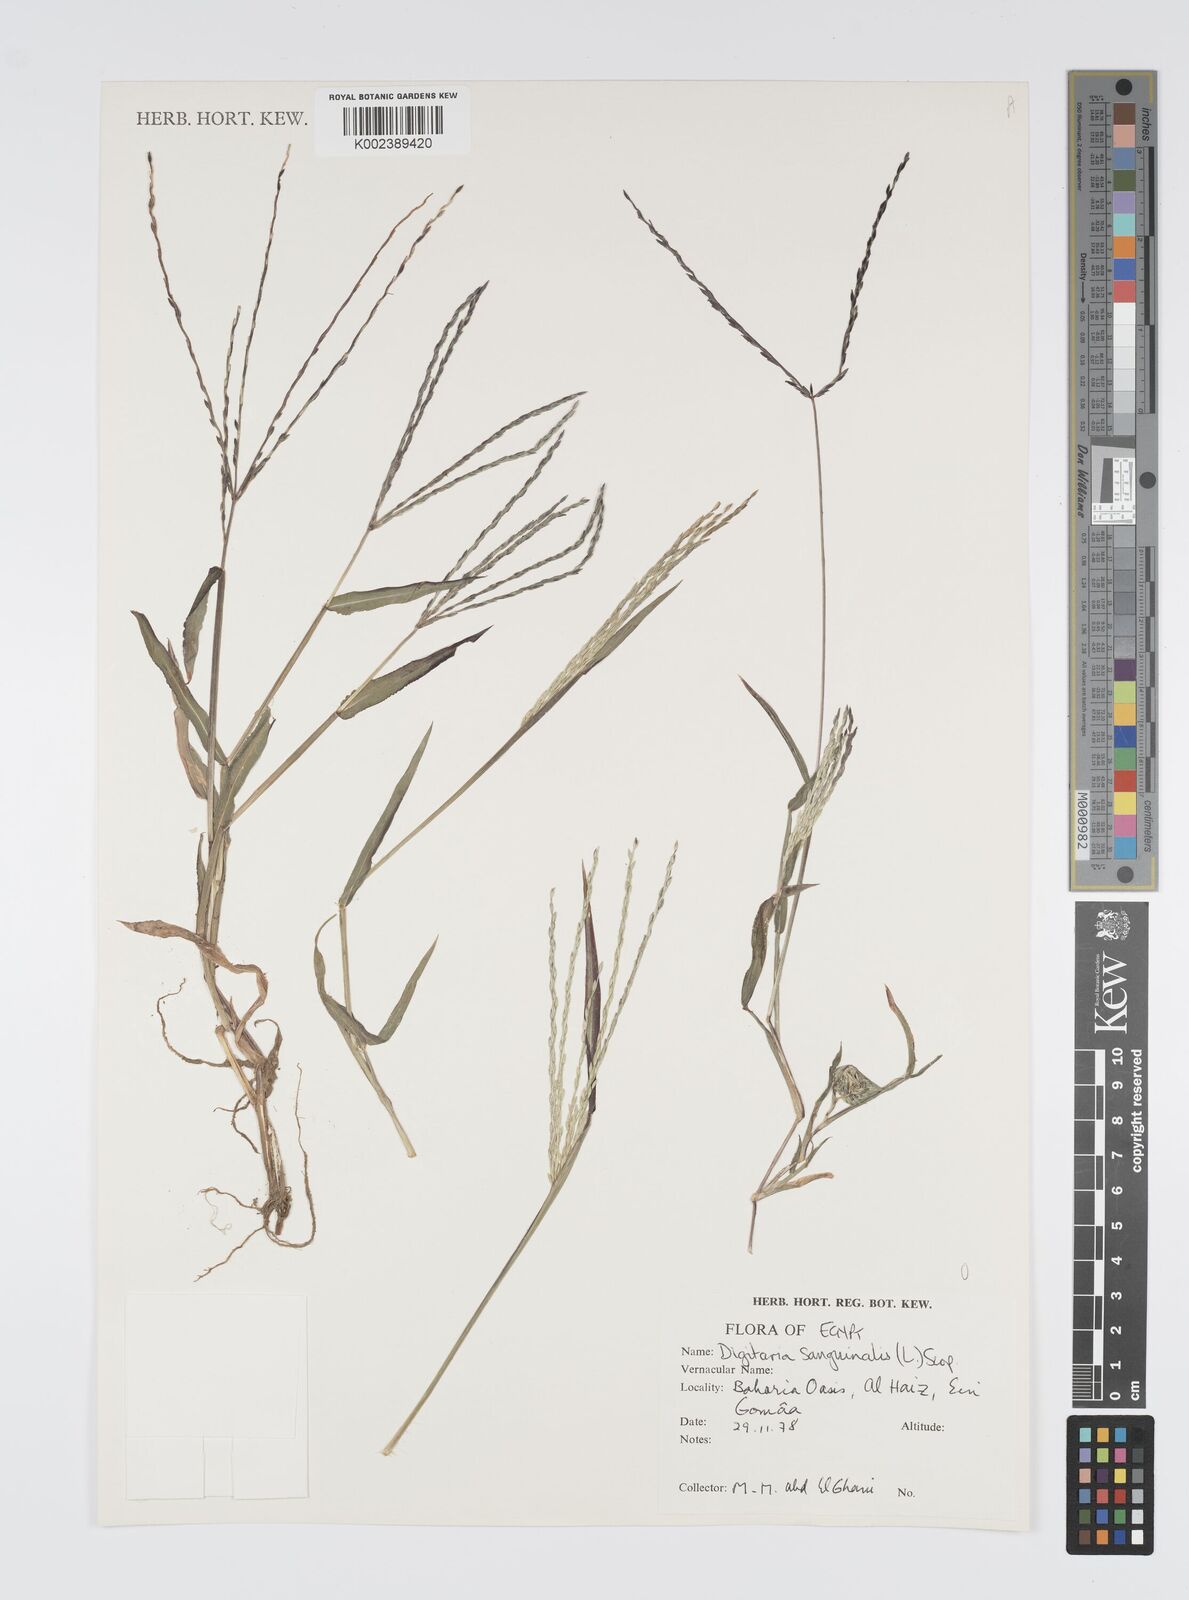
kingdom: Plantae
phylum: Tracheophyta
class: Liliopsida
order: Poales
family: Poaceae
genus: Digitaria
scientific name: Digitaria sanguinalis
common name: Hairy crabgrass
